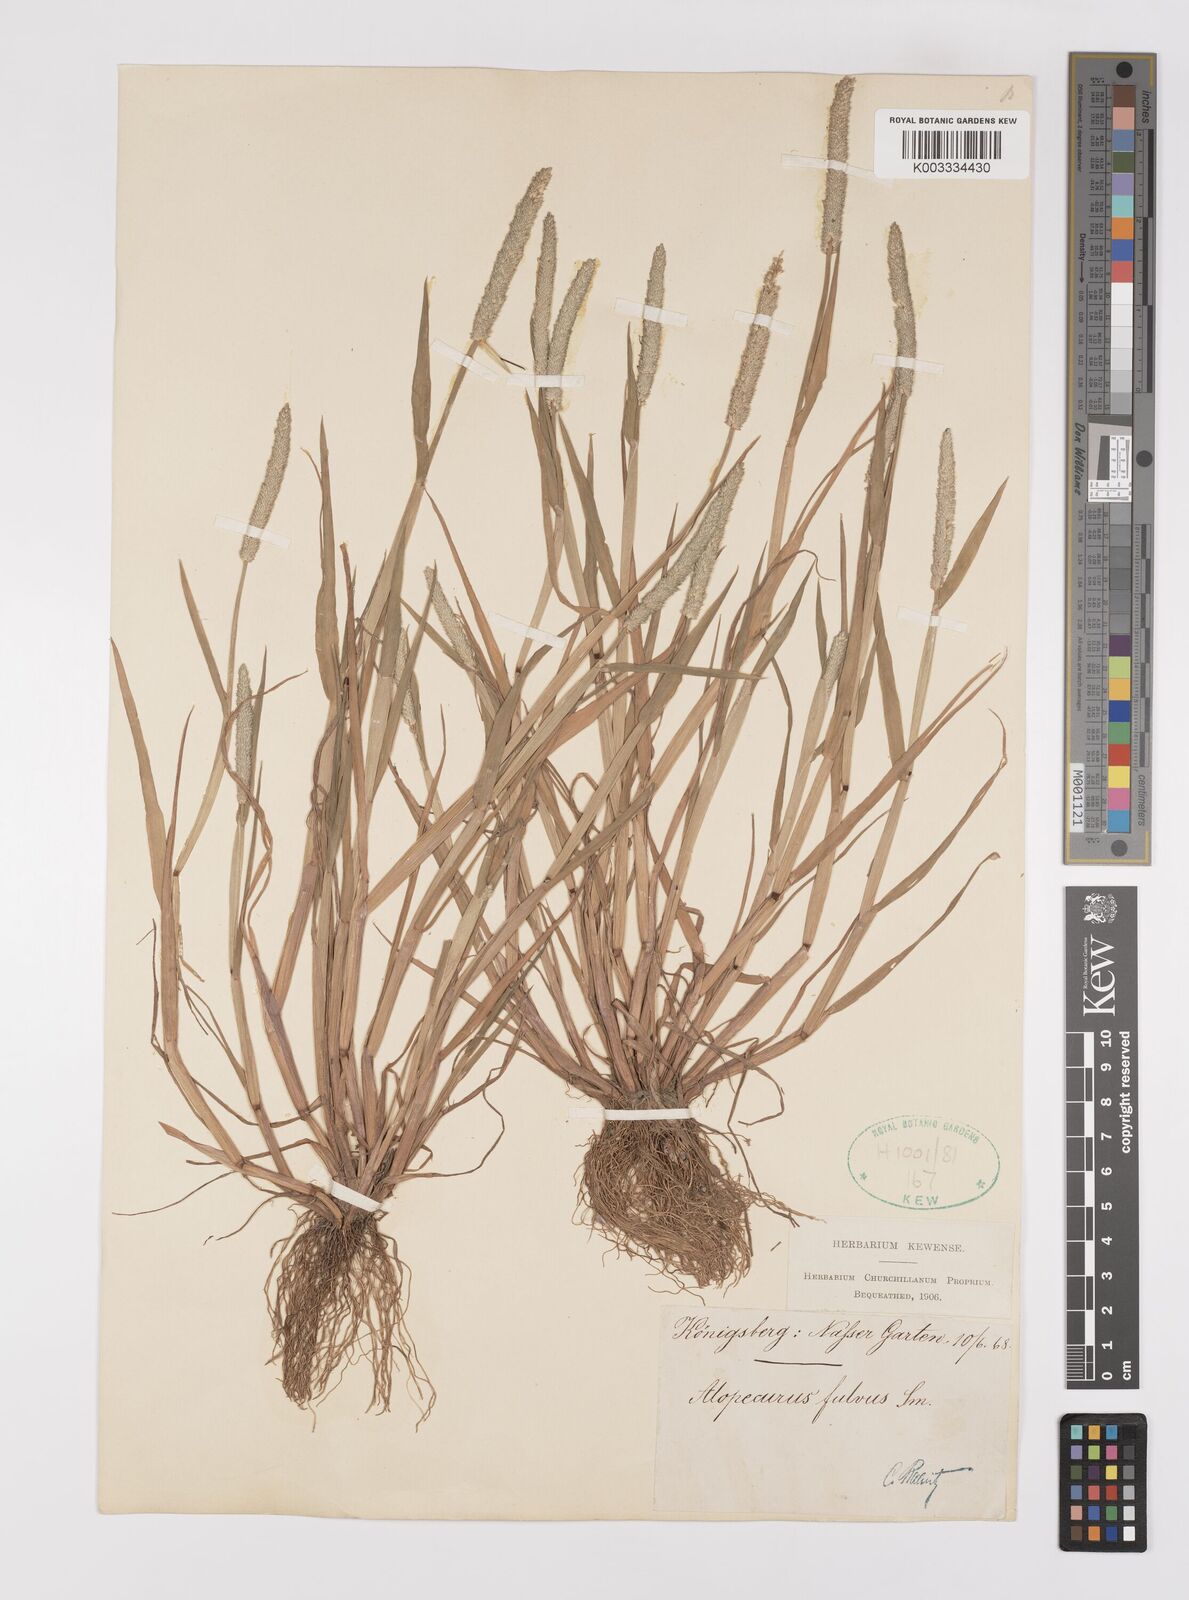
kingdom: Plantae
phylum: Tracheophyta
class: Liliopsida
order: Poales
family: Poaceae
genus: Alopecurus
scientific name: Alopecurus aequalis
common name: Orange foxtail
